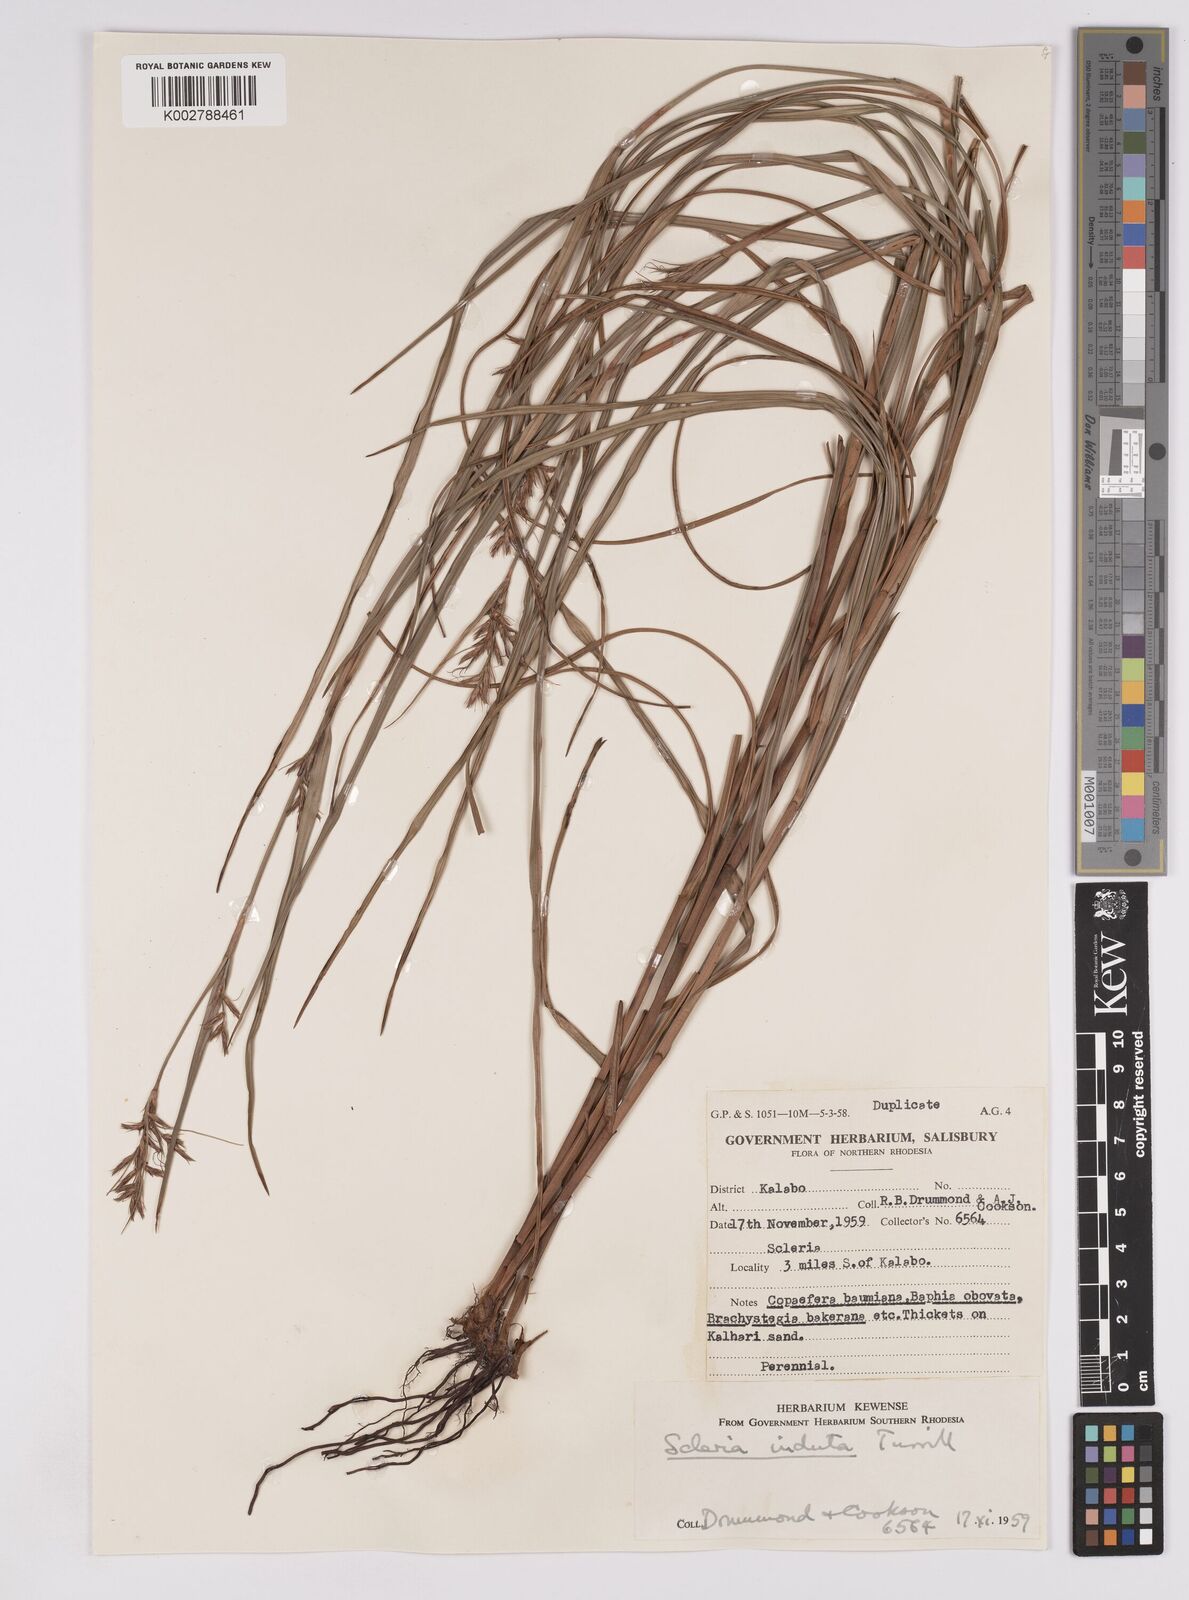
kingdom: Plantae
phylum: Tracheophyta
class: Liliopsida
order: Poales
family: Cyperaceae
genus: Scleria
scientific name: Scleria induta
